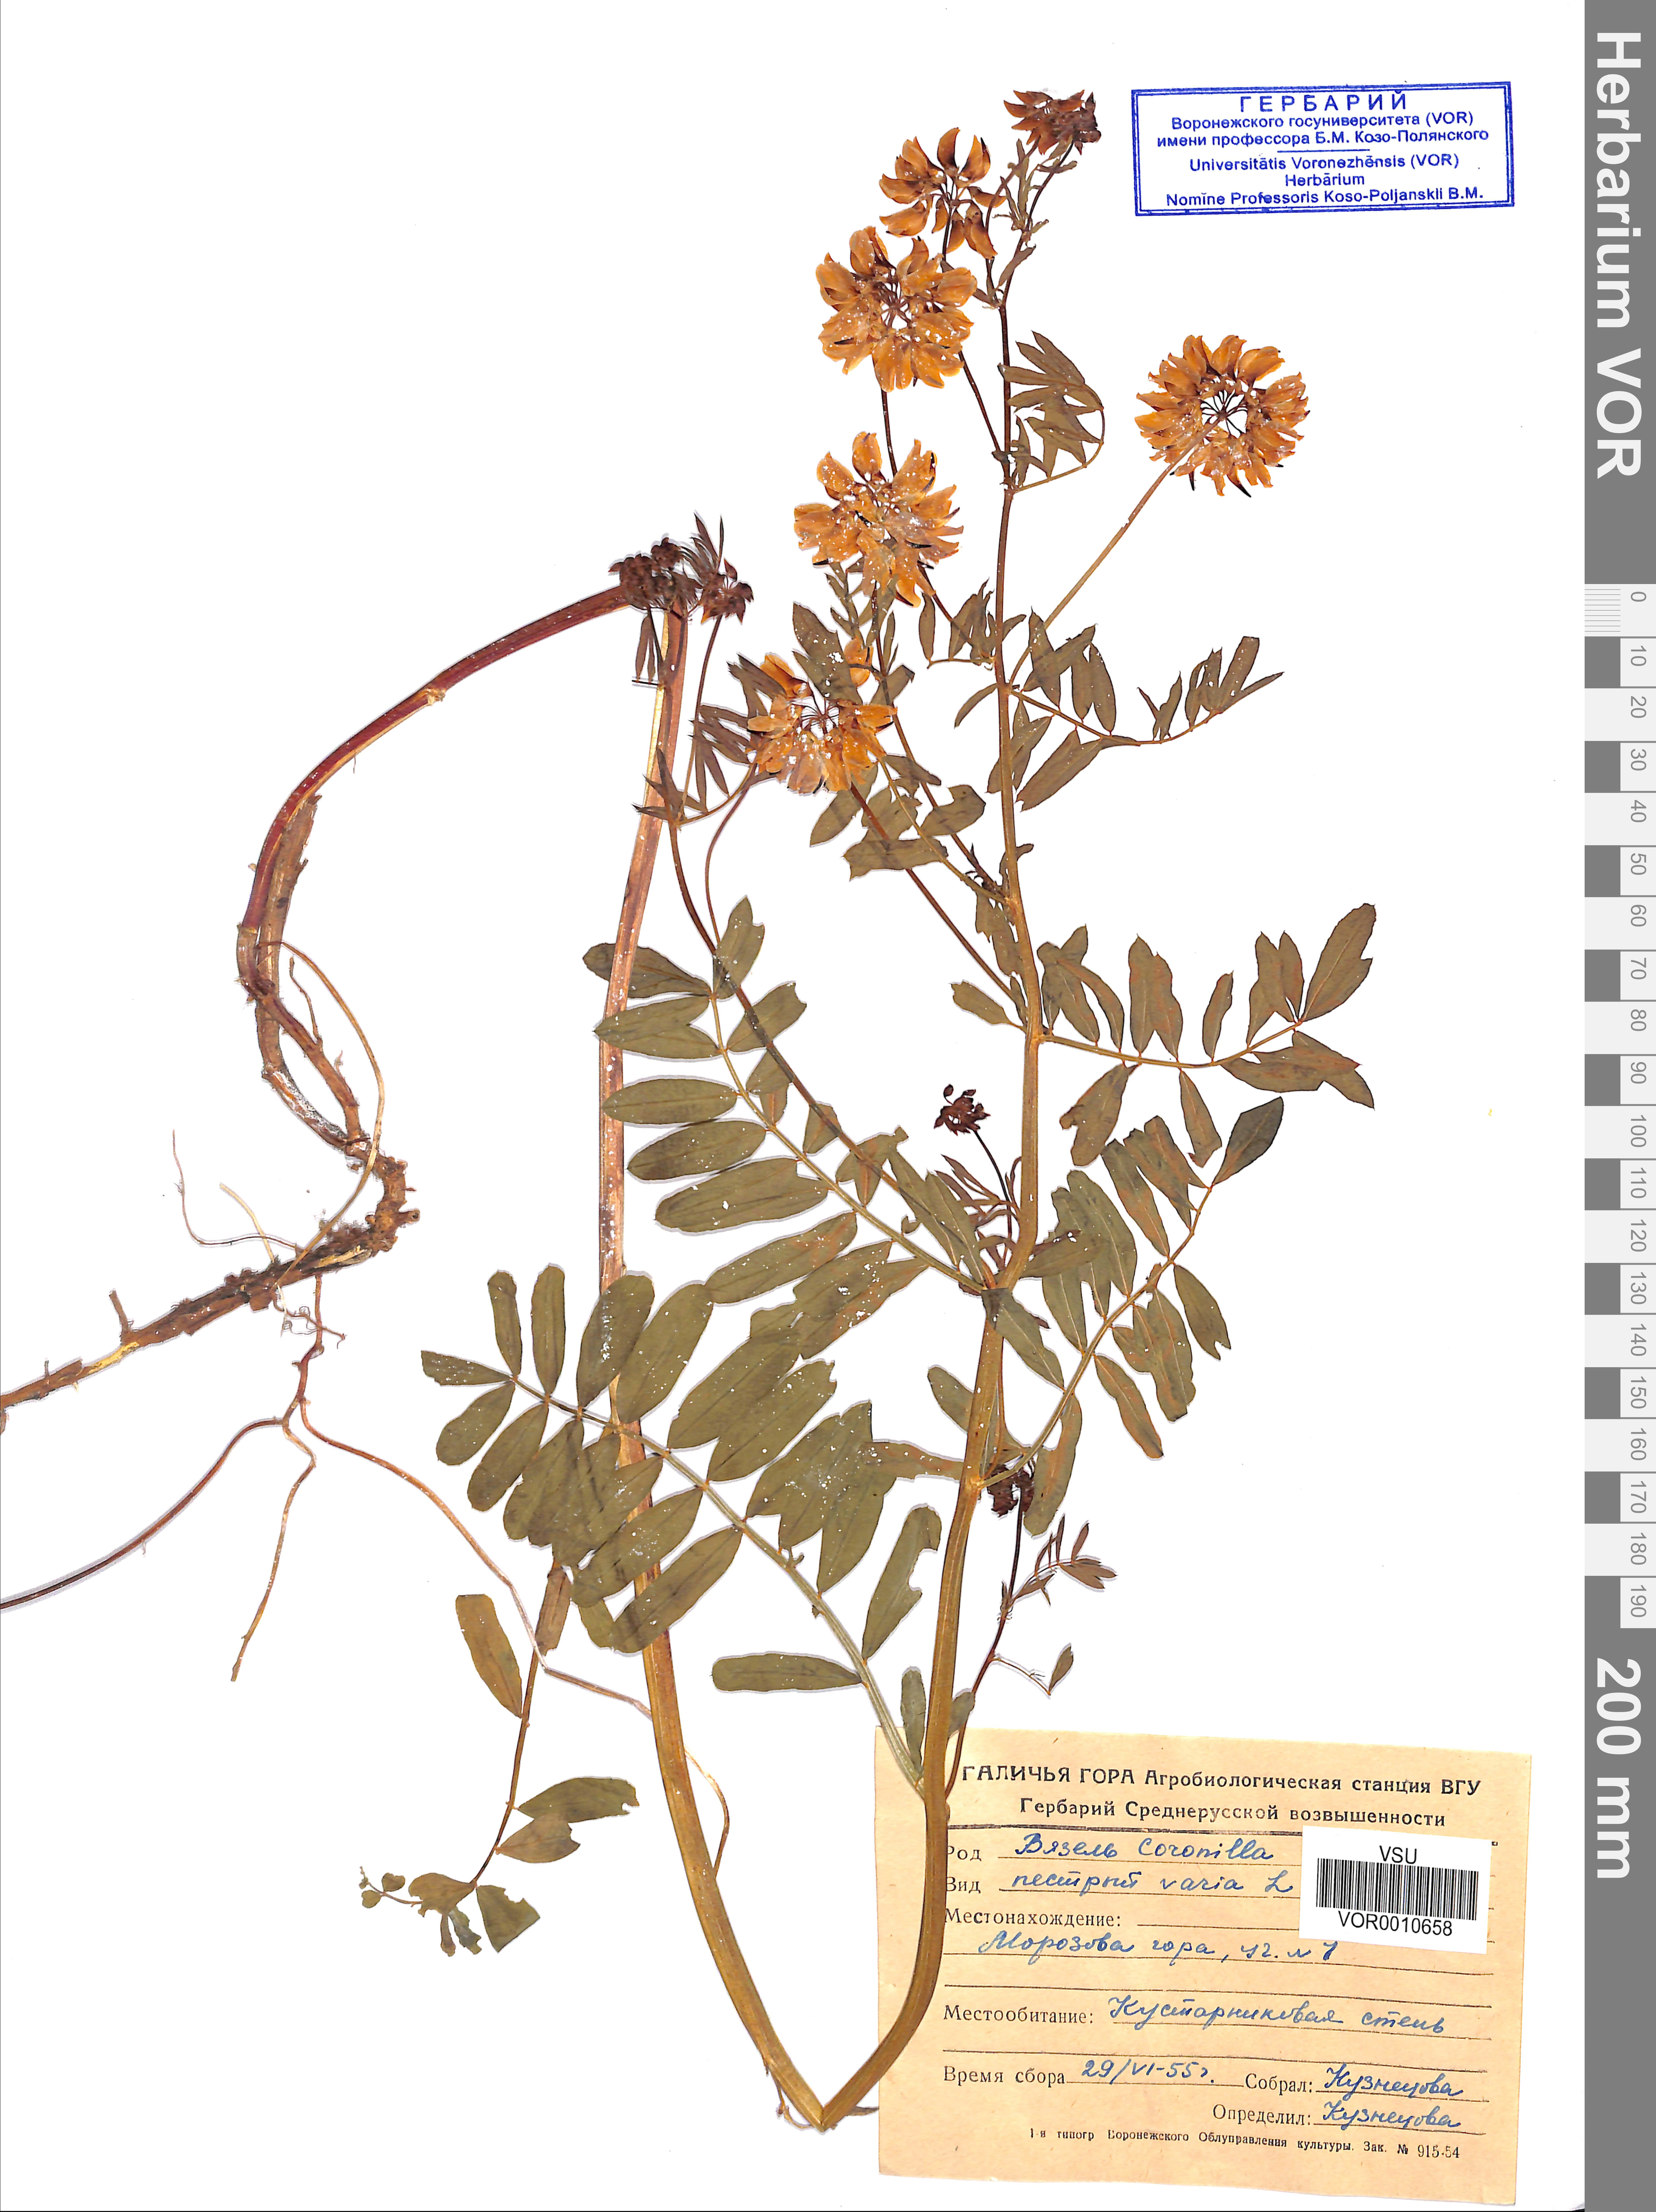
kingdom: Plantae
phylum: Tracheophyta
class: Magnoliopsida
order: Fabales
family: Fabaceae
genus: Coronilla
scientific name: Coronilla varia
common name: Crownvetch
